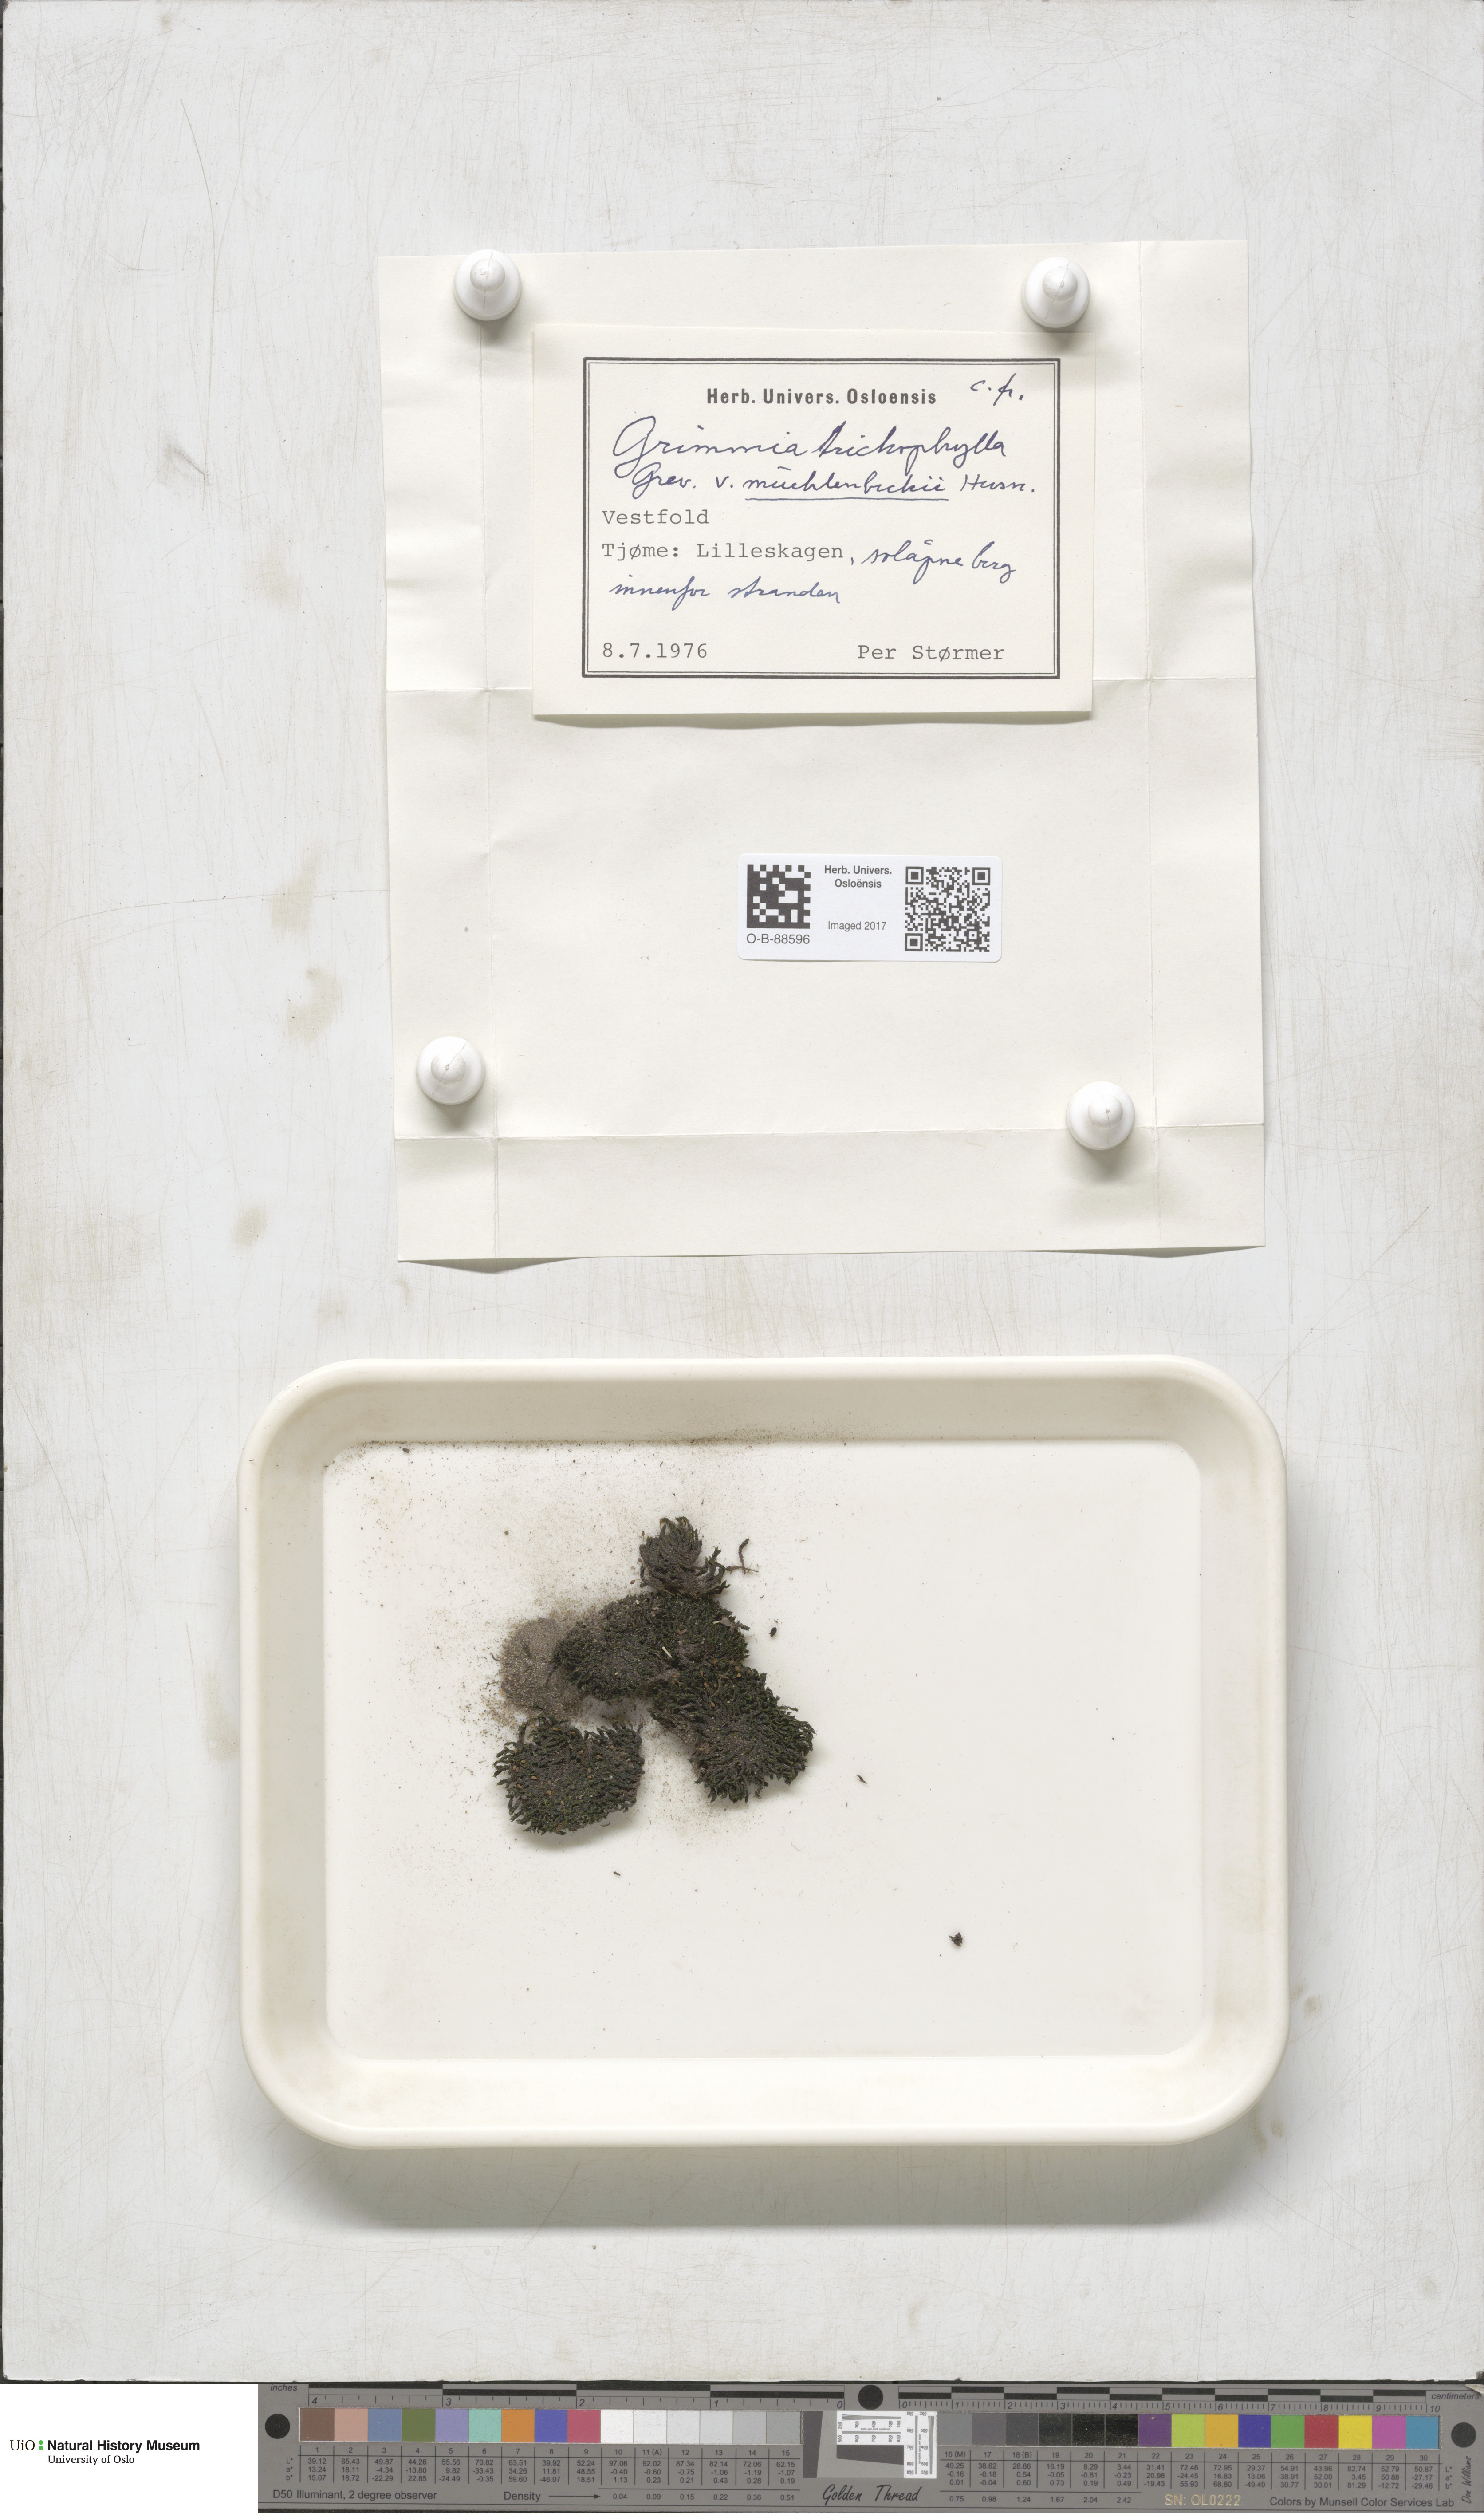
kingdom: Plantae
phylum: Bryophyta
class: Bryopsida
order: Grimmiales
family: Grimmiaceae
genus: Grimmia
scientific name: Grimmia muehlenbeckii
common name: Muehlenbeck's grimmia
